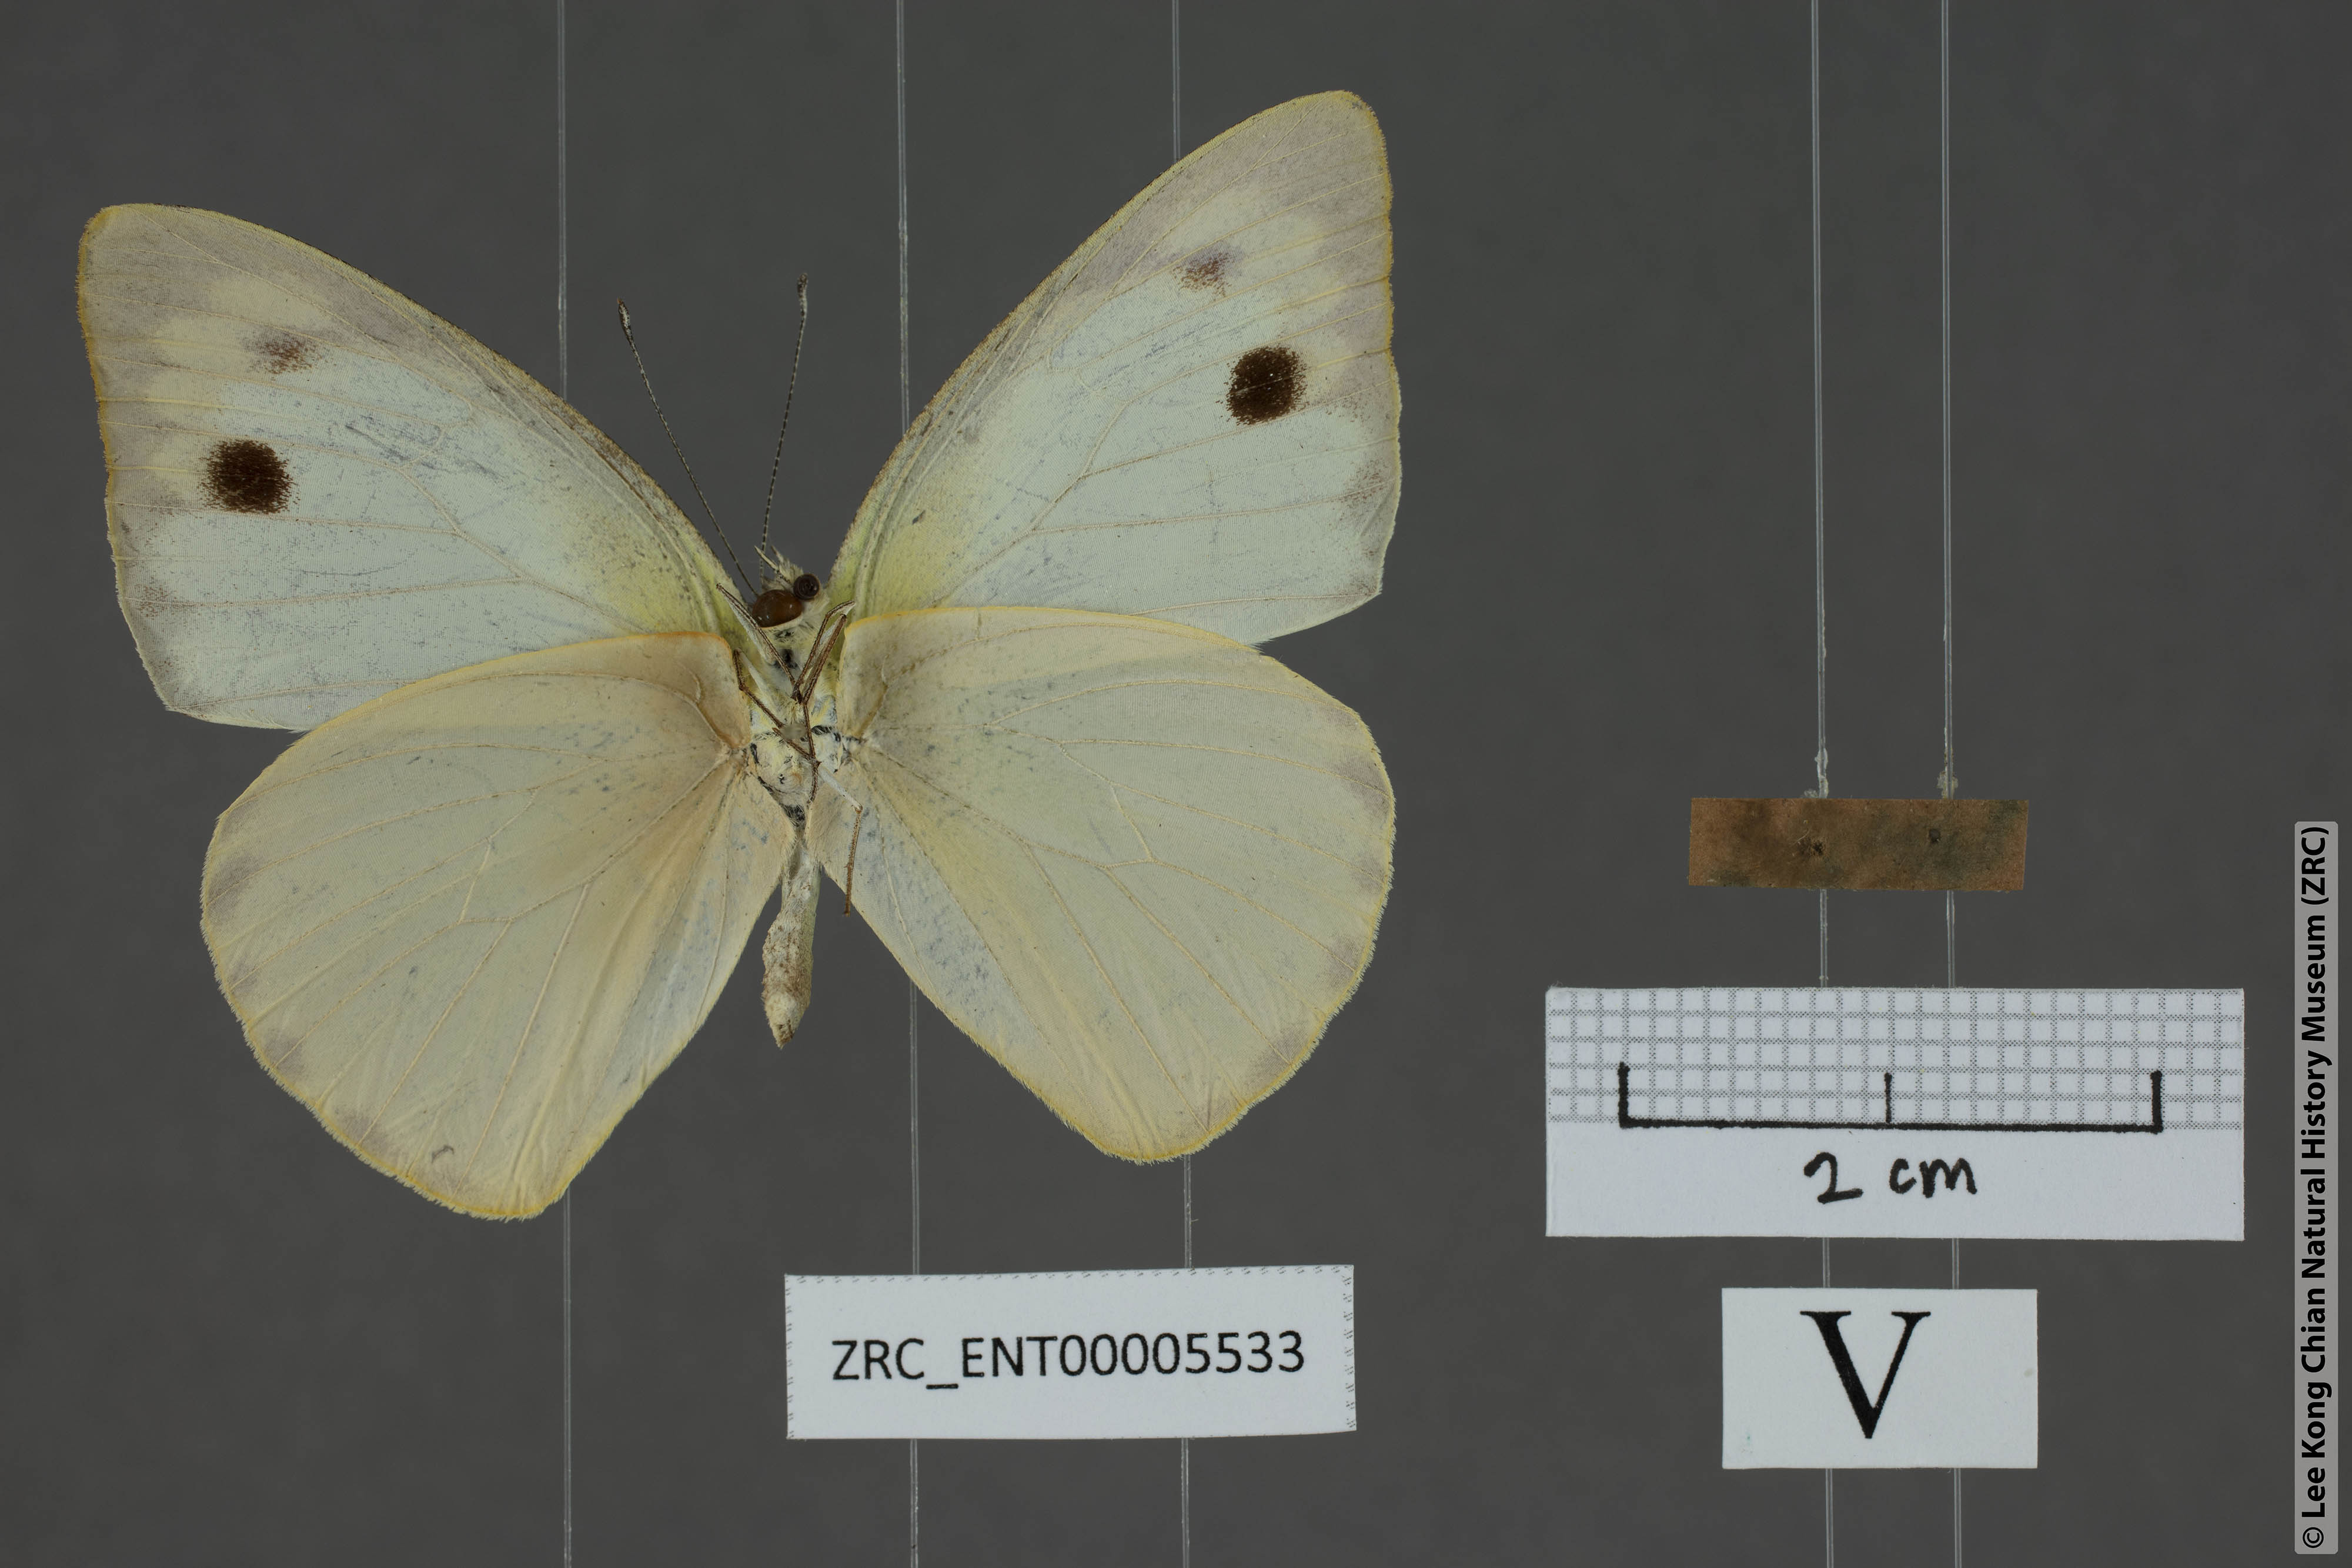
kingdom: Animalia
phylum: Arthropoda
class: Insecta
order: Lepidoptera
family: Pieridae
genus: Appias
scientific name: Appias albina
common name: Common albatross
